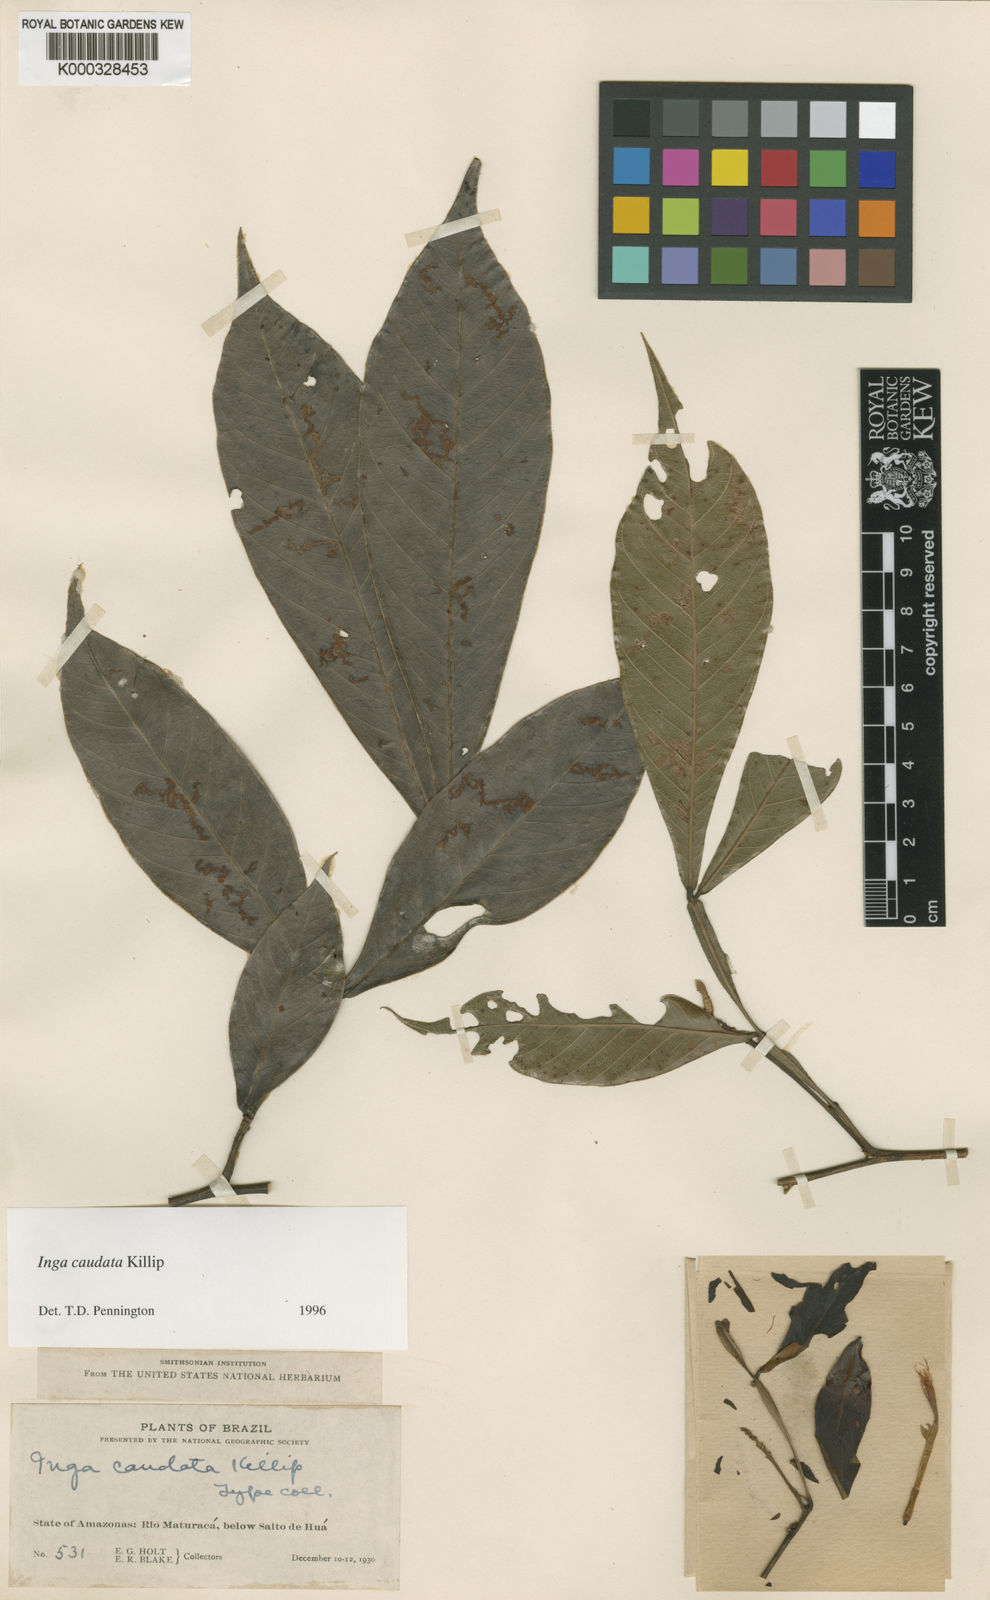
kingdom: Plantae
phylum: Tracheophyta
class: Magnoliopsida
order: Fabales
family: Fabaceae
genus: Inga
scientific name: Inga caudata
